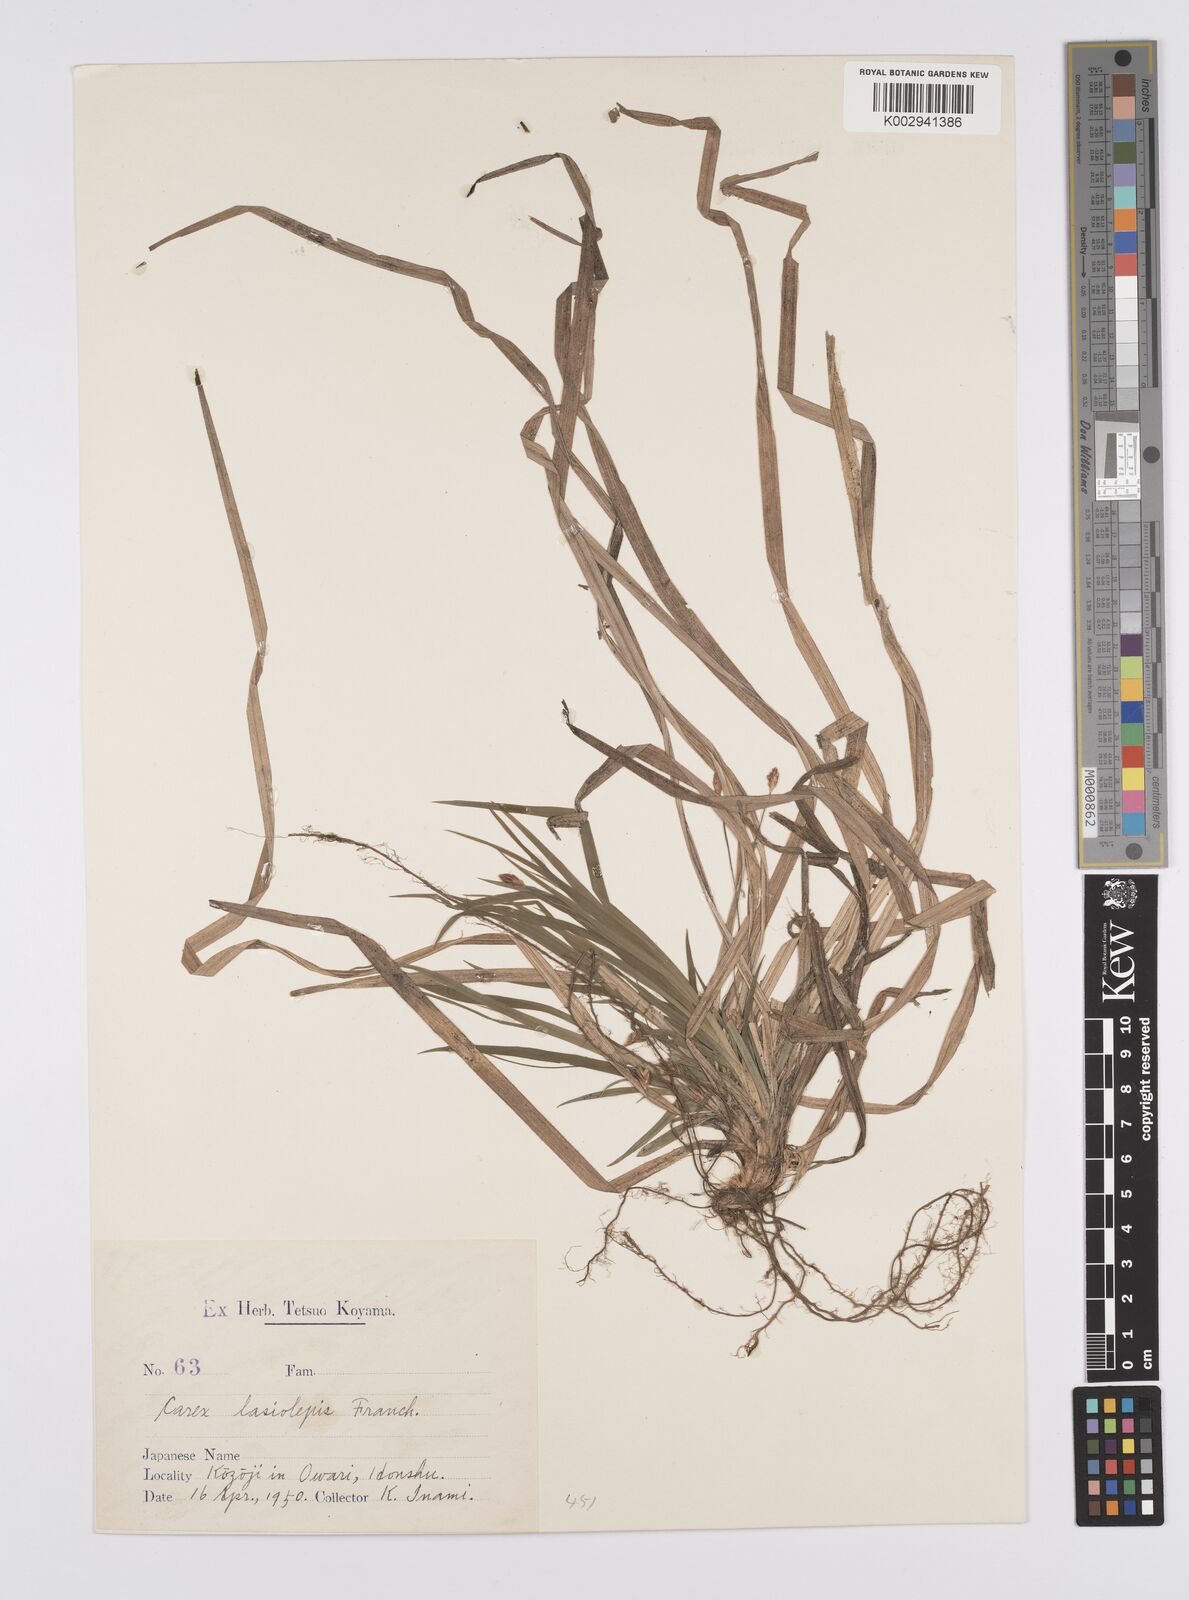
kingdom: Plantae
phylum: Tracheophyta
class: Liliopsida
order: Poales
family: Cyperaceae
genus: Carex
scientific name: Carex lasiolepis
